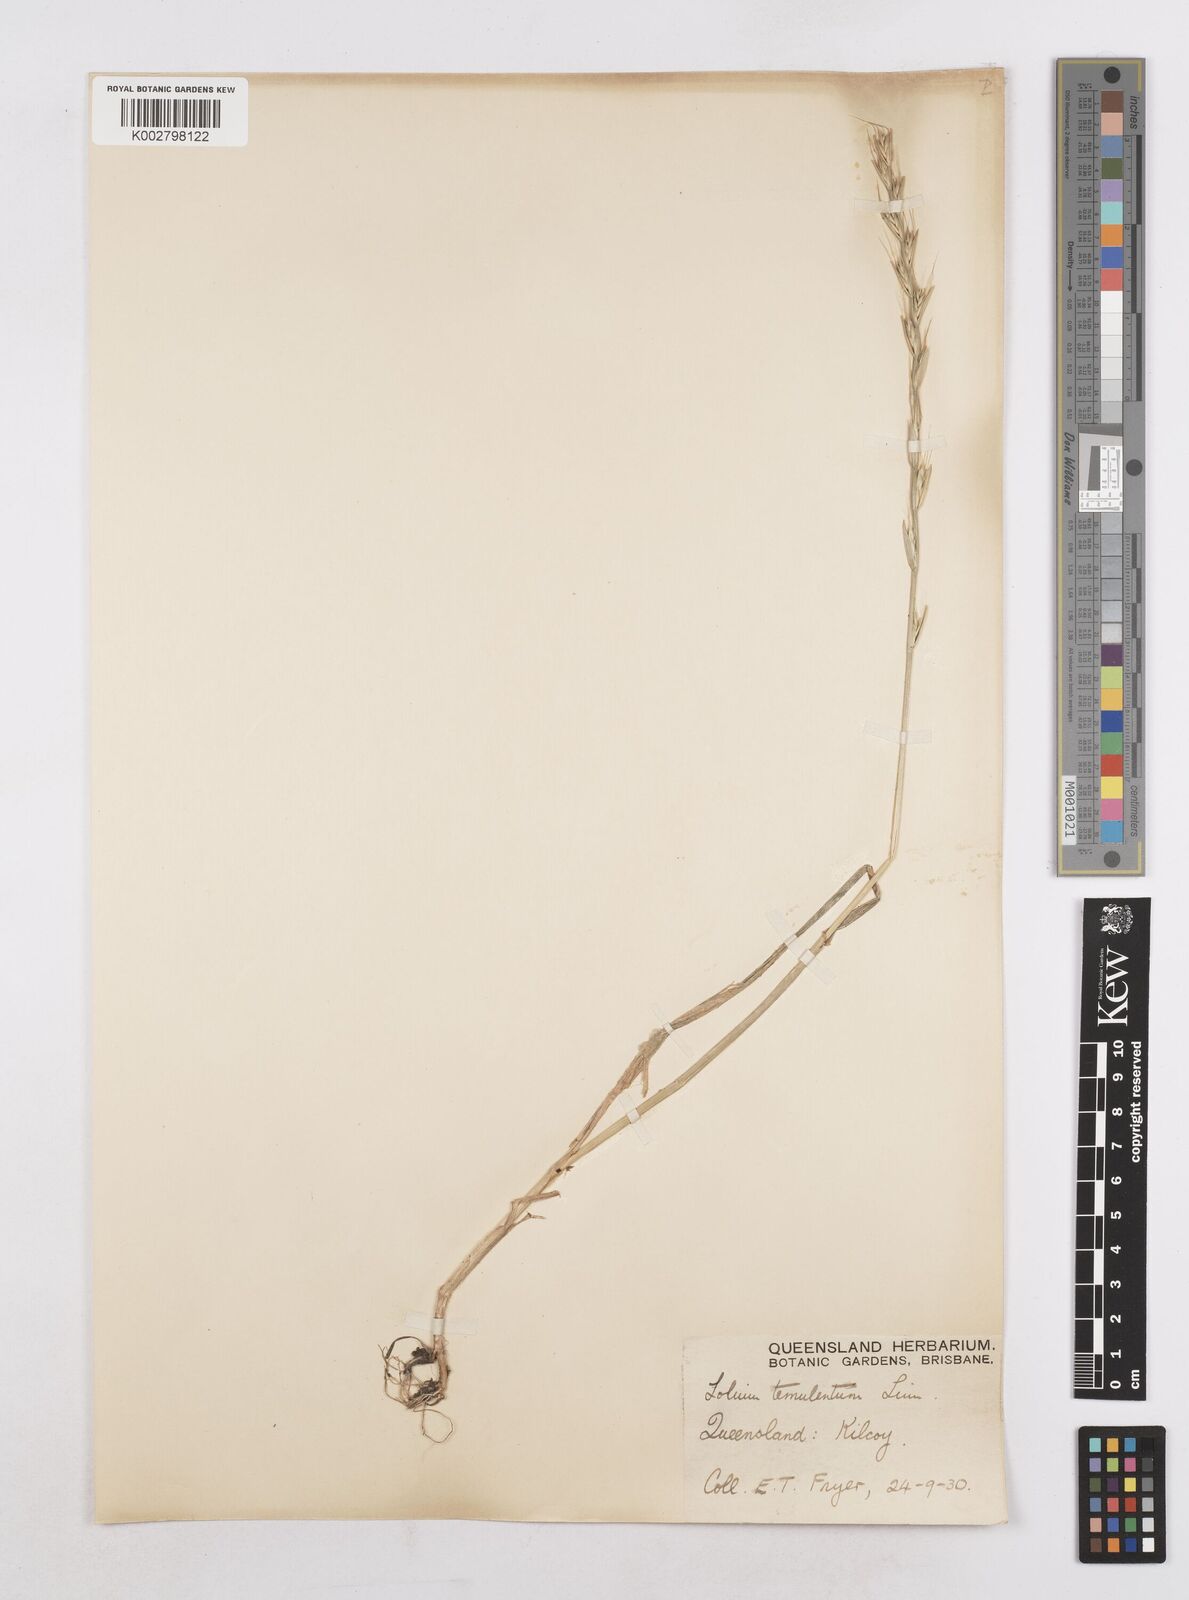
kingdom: Plantae
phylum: Tracheophyta
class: Liliopsida
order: Poales
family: Poaceae
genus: Lolium
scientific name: Lolium temulentum
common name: Darnel
